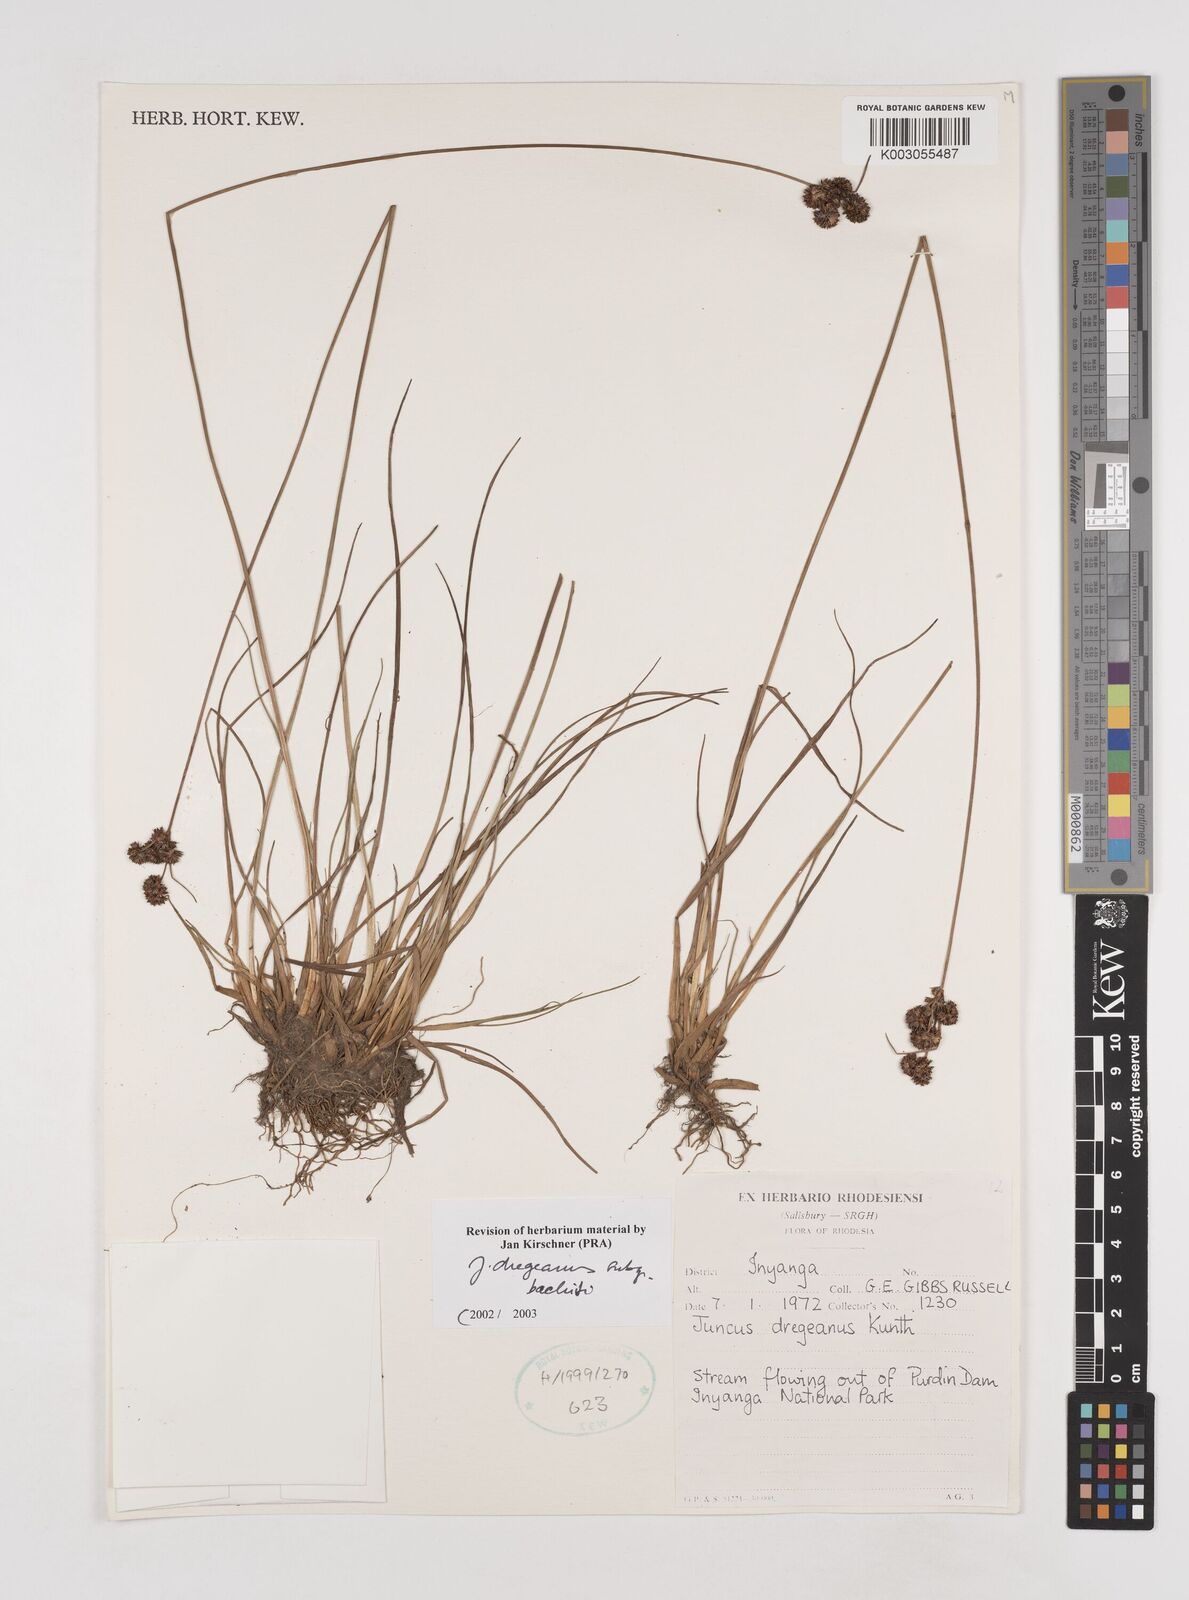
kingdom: Plantae
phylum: Tracheophyta
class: Liliopsida
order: Poales
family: Juncaceae
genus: Juncus
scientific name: Juncus dregeanus
